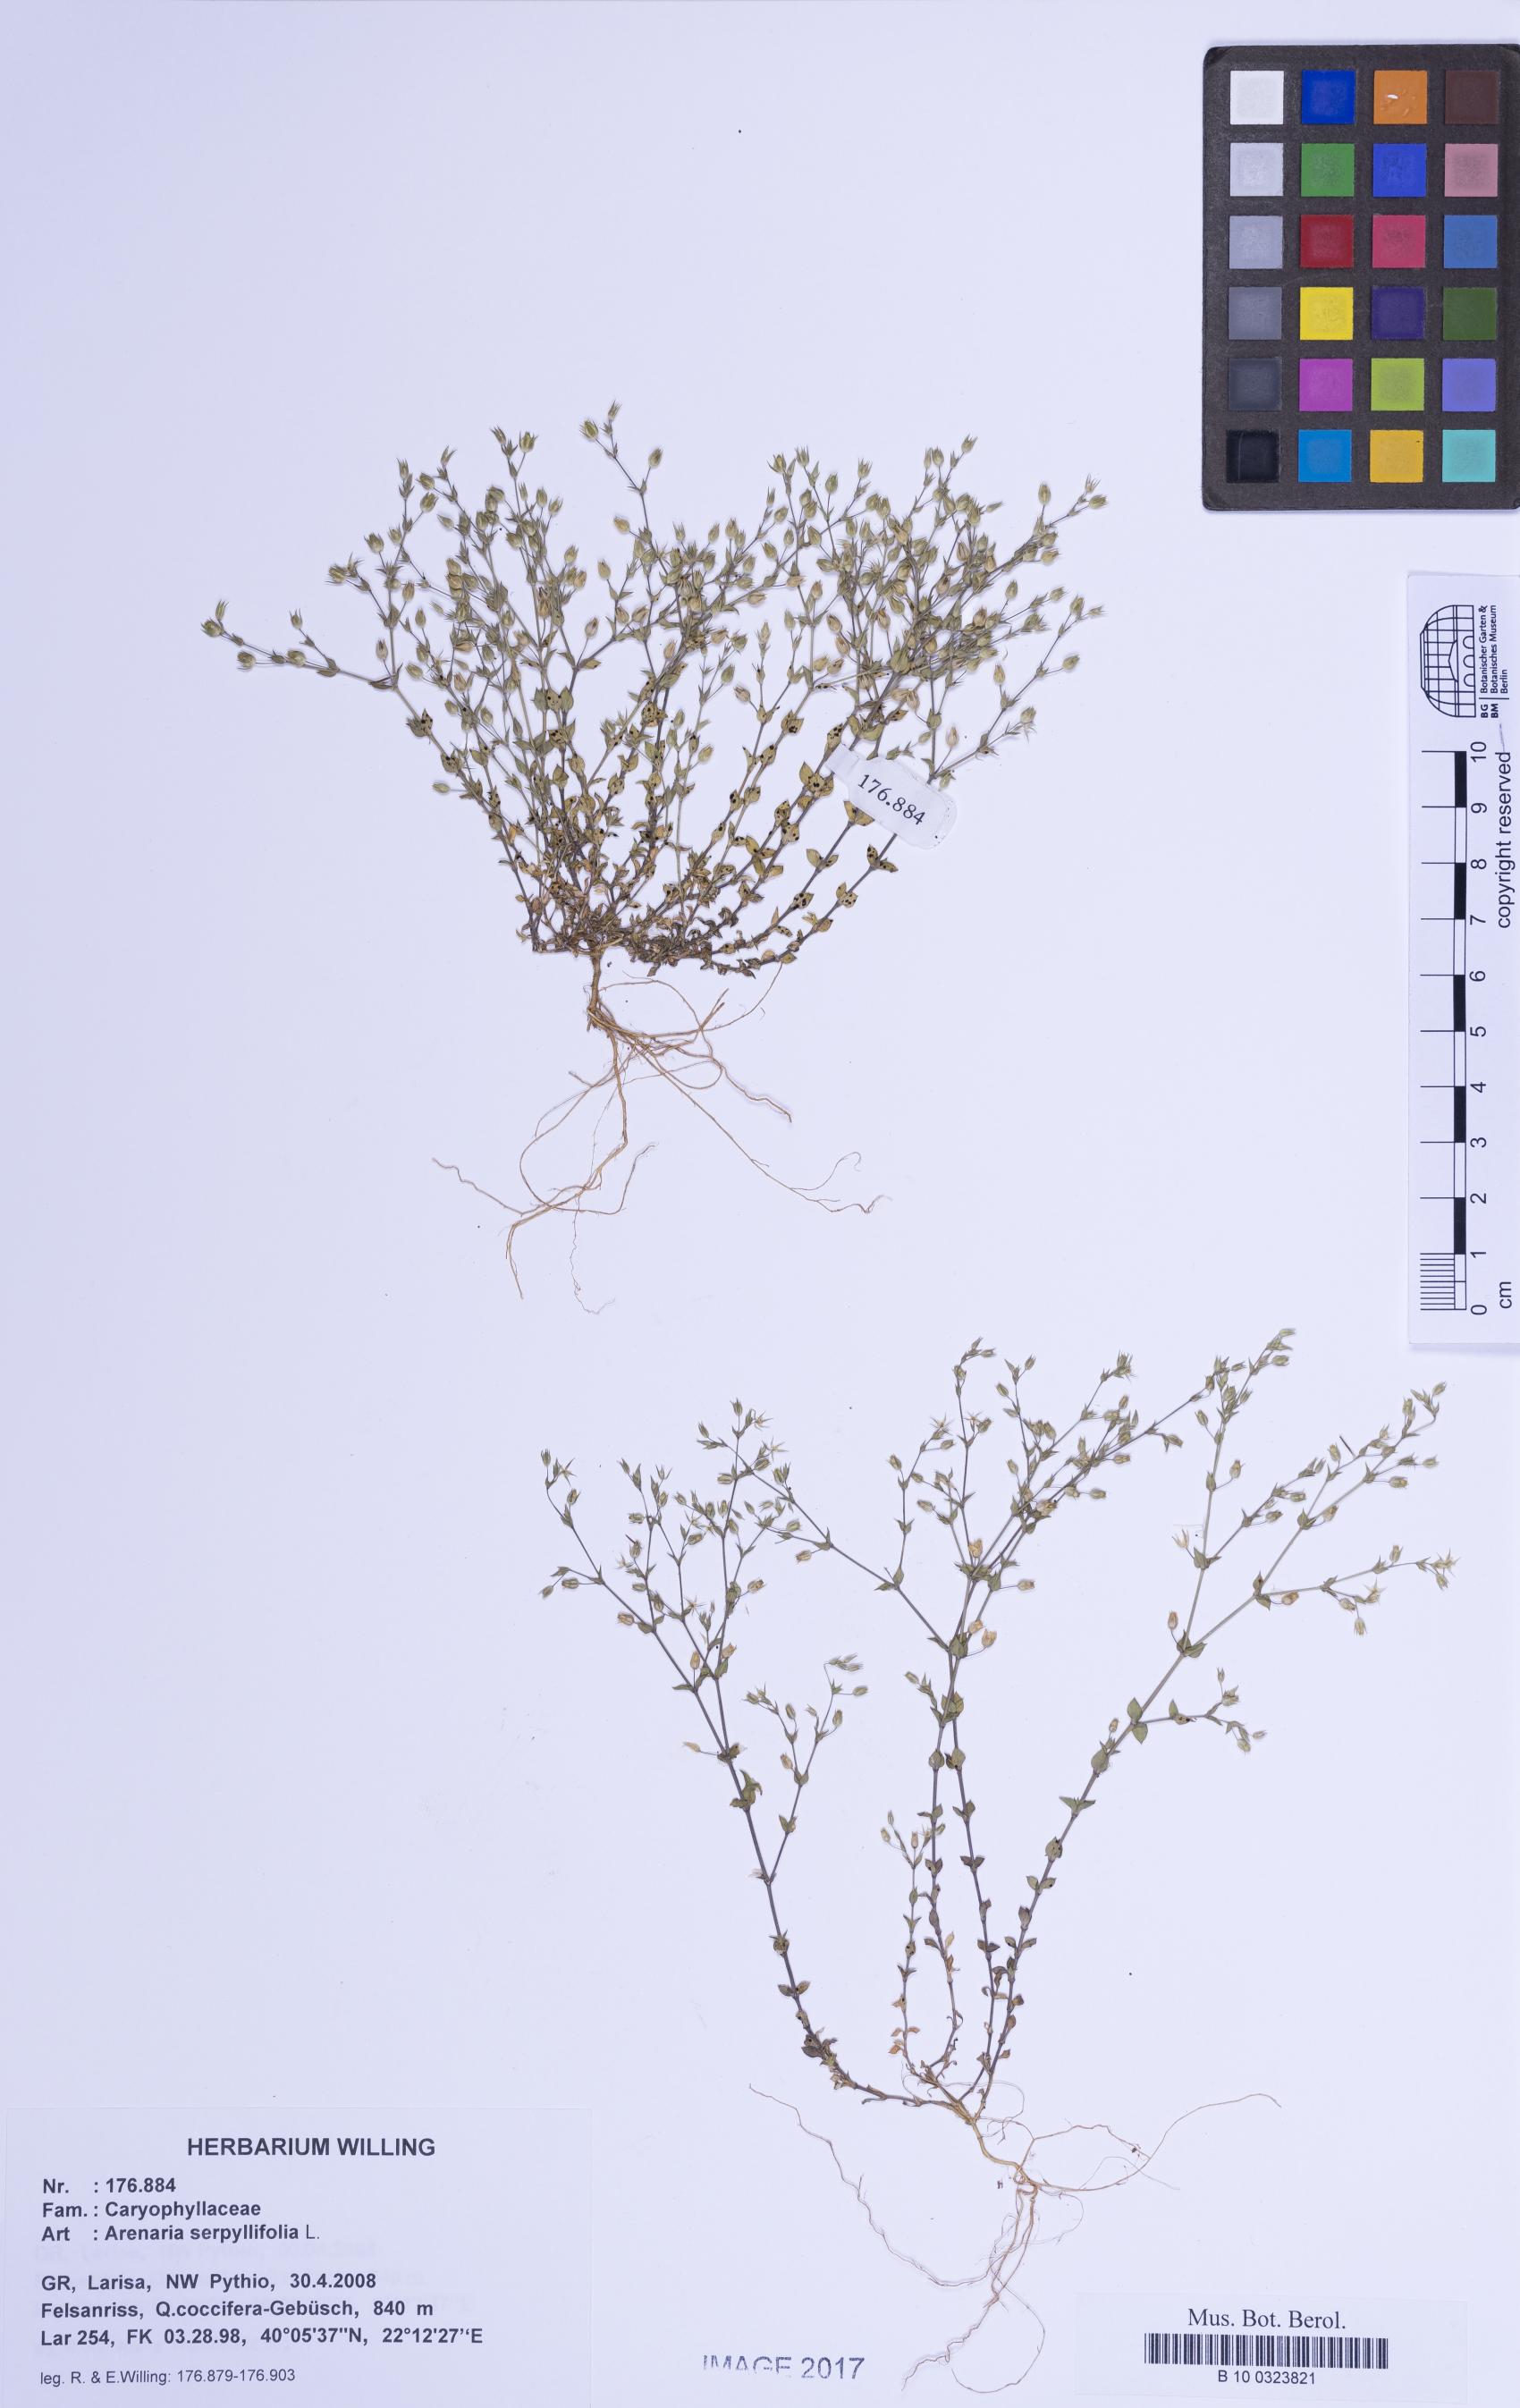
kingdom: Plantae
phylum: Tracheophyta
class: Magnoliopsida
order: Caryophyllales
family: Caryophyllaceae
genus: Arenaria
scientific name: Arenaria serpyllifolia
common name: Thyme-leaved sandwort
